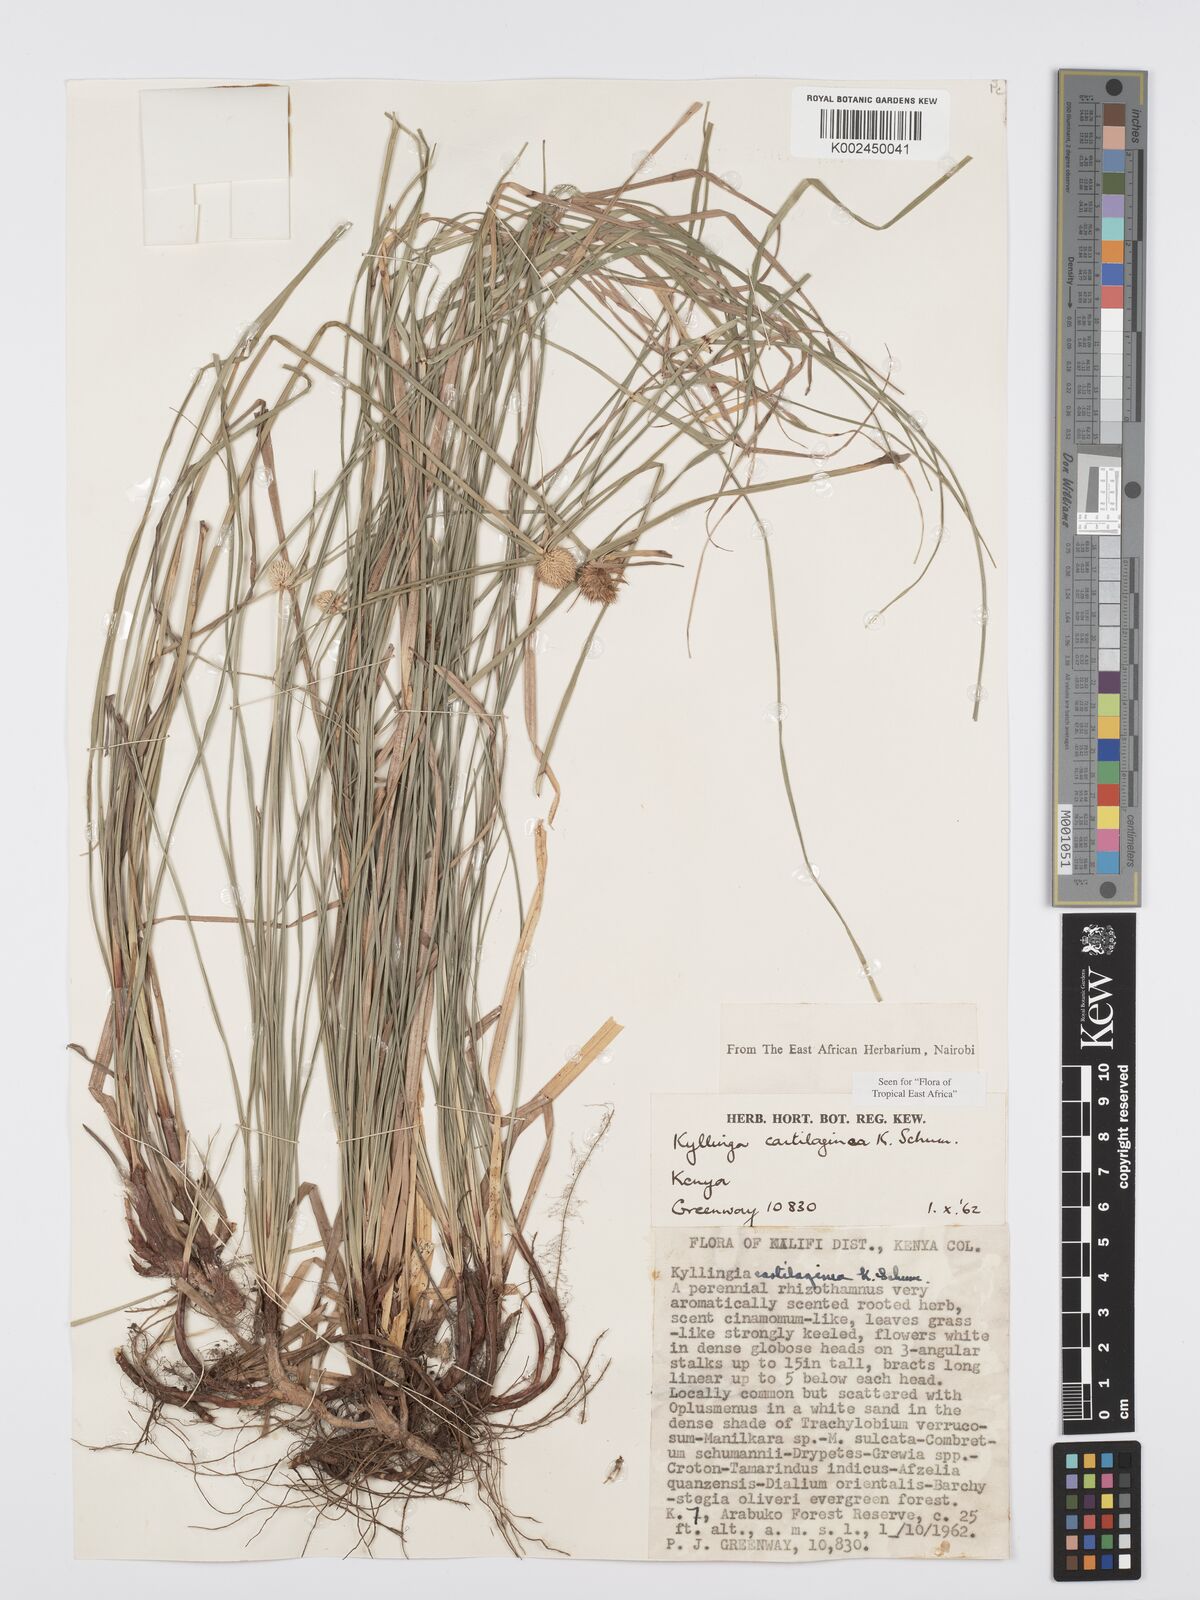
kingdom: Plantae
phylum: Tracheophyta
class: Liliopsida
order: Poales
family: Cyperaceae
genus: Cyperus
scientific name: Cyperus cartilagineus
